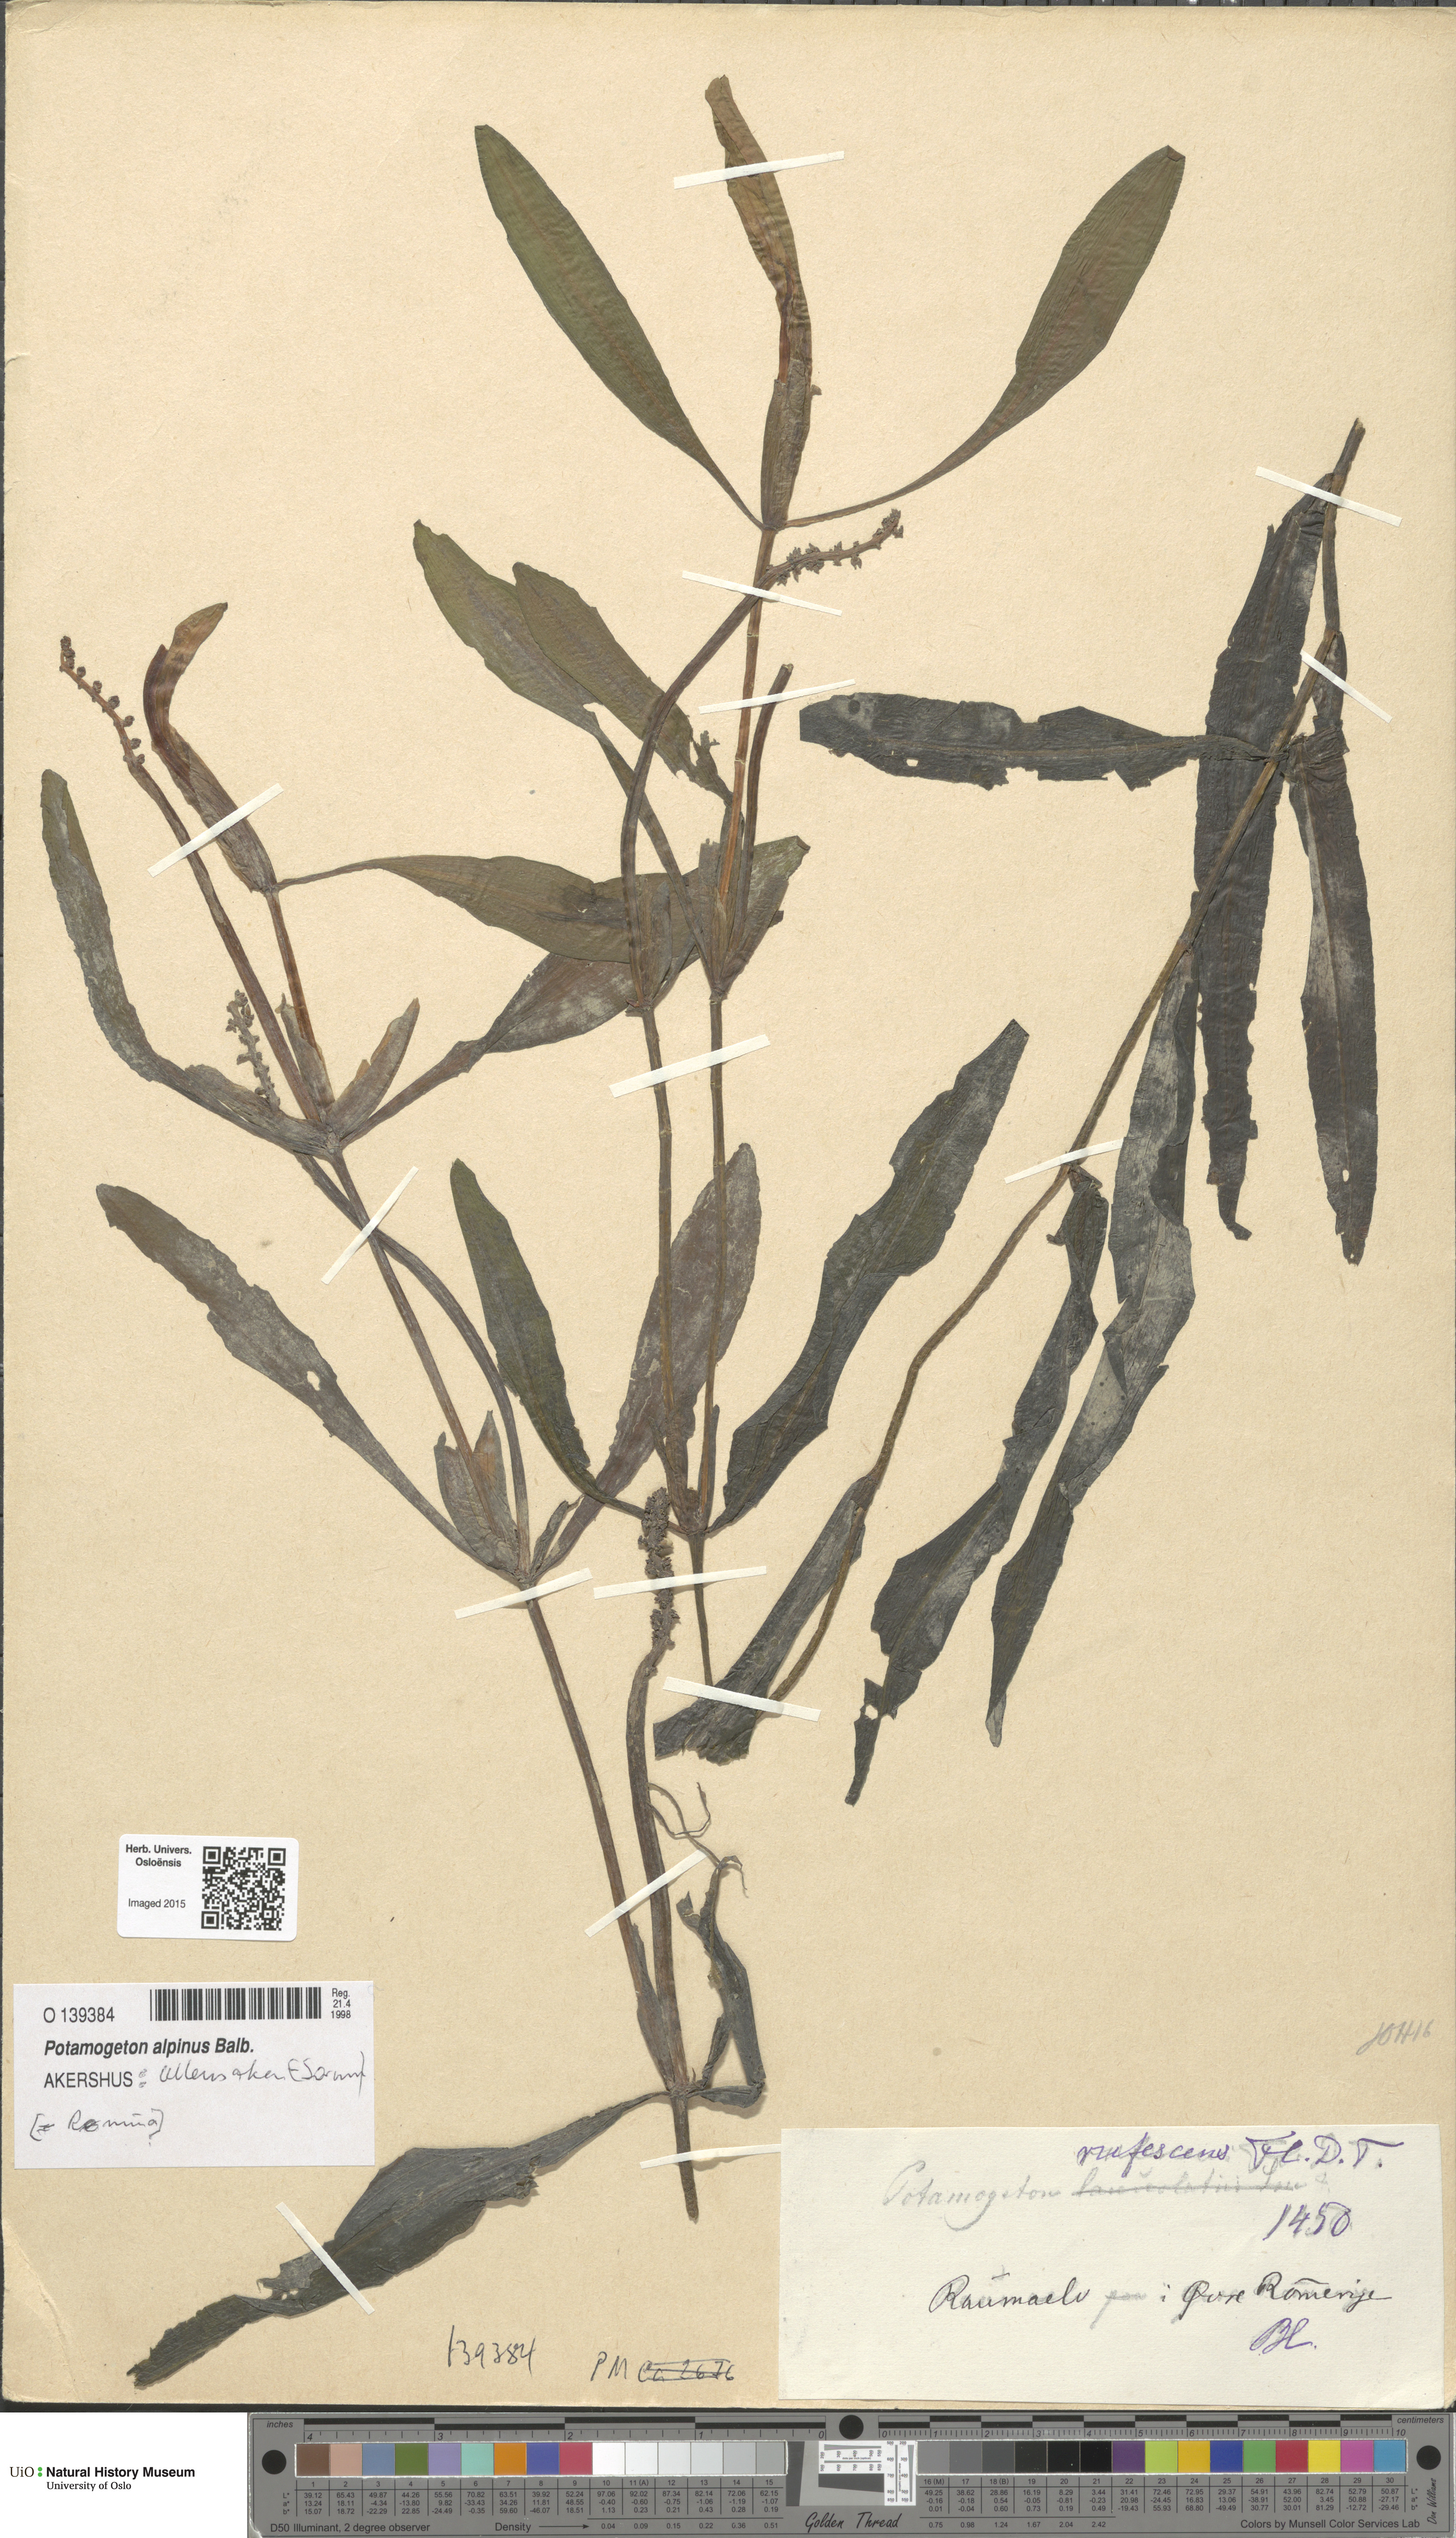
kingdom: Plantae
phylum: Tracheophyta
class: Liliopsida
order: Alismatales
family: Potamogetonaceae
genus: Potamogeton
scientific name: Potamogeton alpinus
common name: Red pondweed
